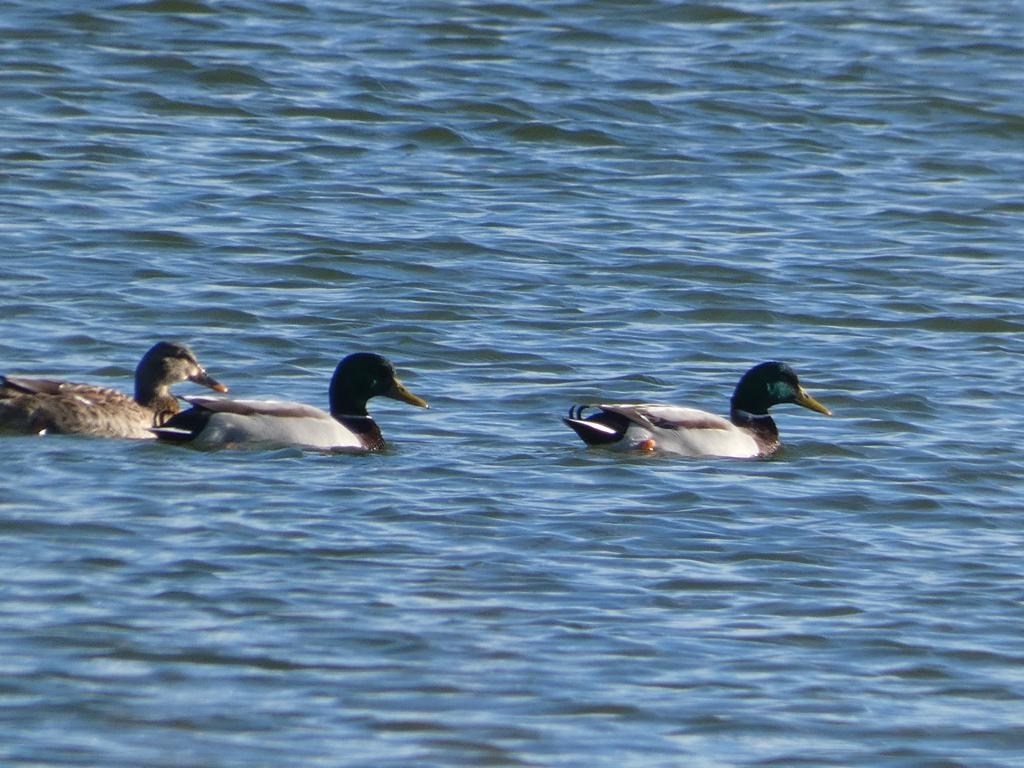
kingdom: Animalia
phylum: Chordata
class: Aves
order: Anseriformes
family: Anatidae
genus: Anas
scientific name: Anas platyrhynchos
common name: Gråand
